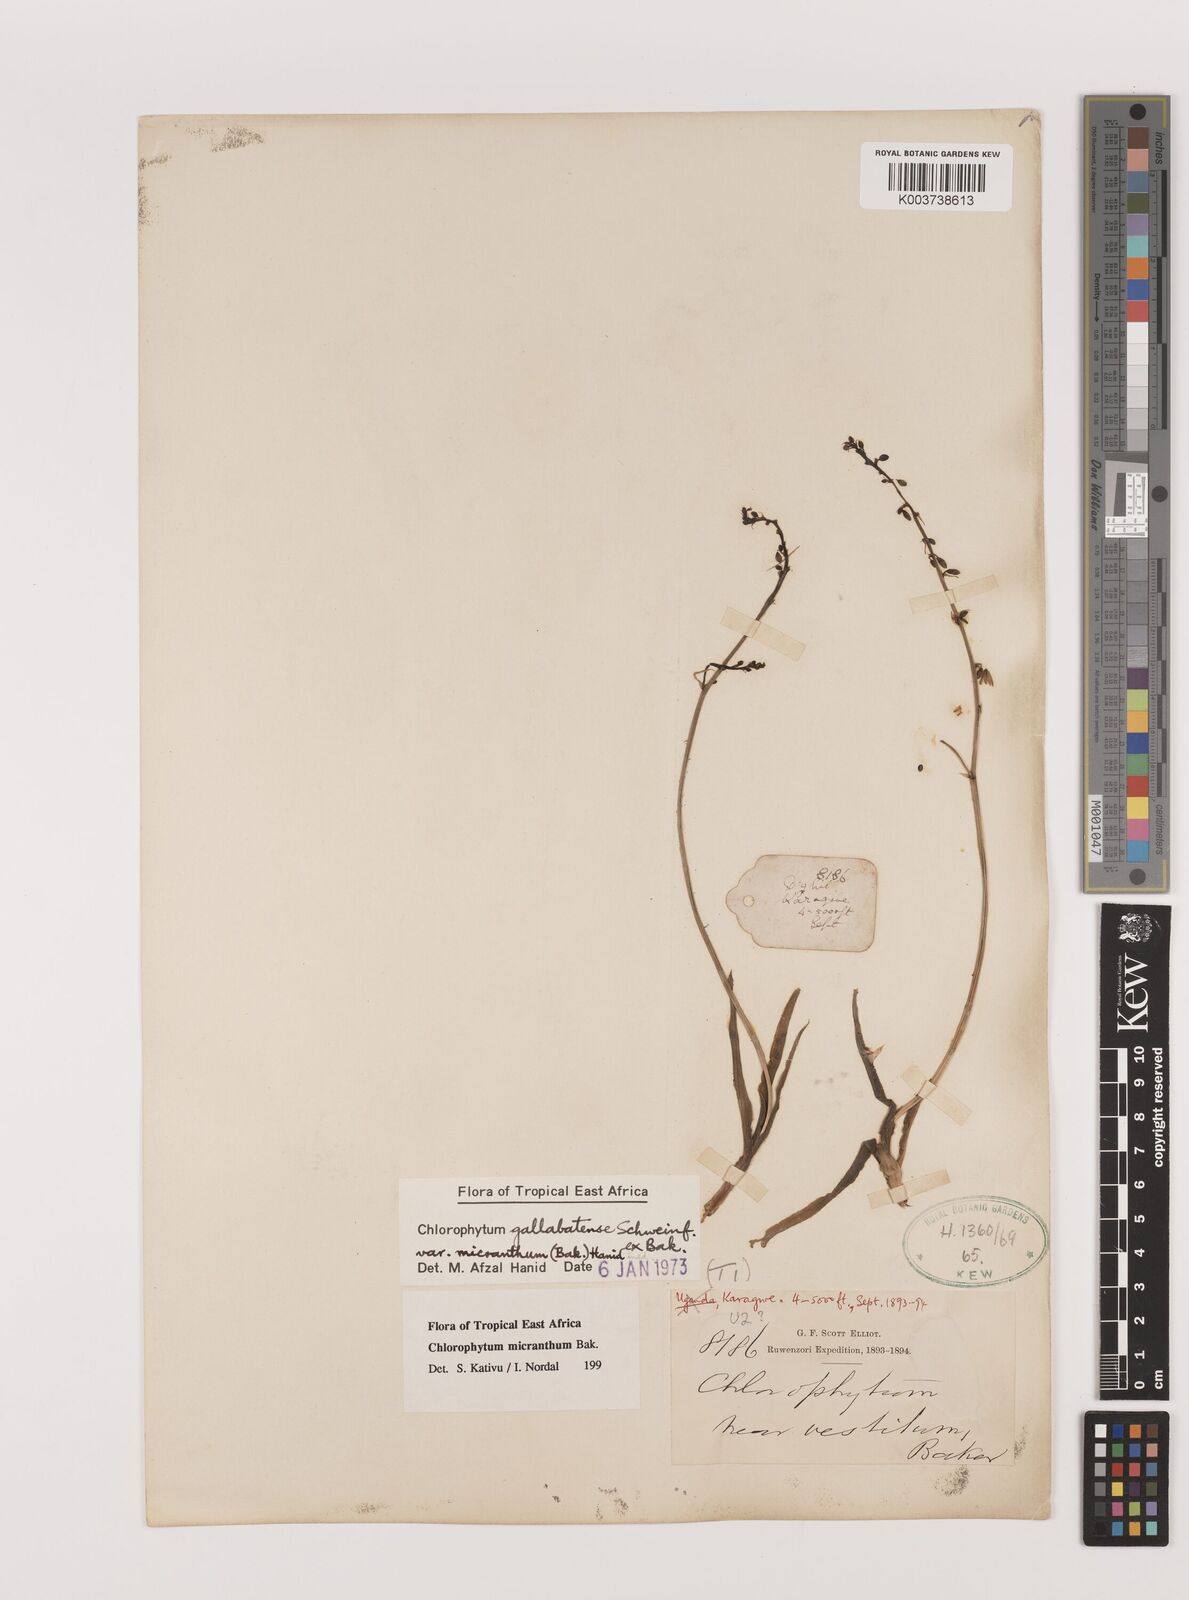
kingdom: Plantae
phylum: Tracheophyta
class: Liliopsida
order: Asparagales
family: Asparagaceae
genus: Chlorophytum
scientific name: Chlorophytum gallabatense
